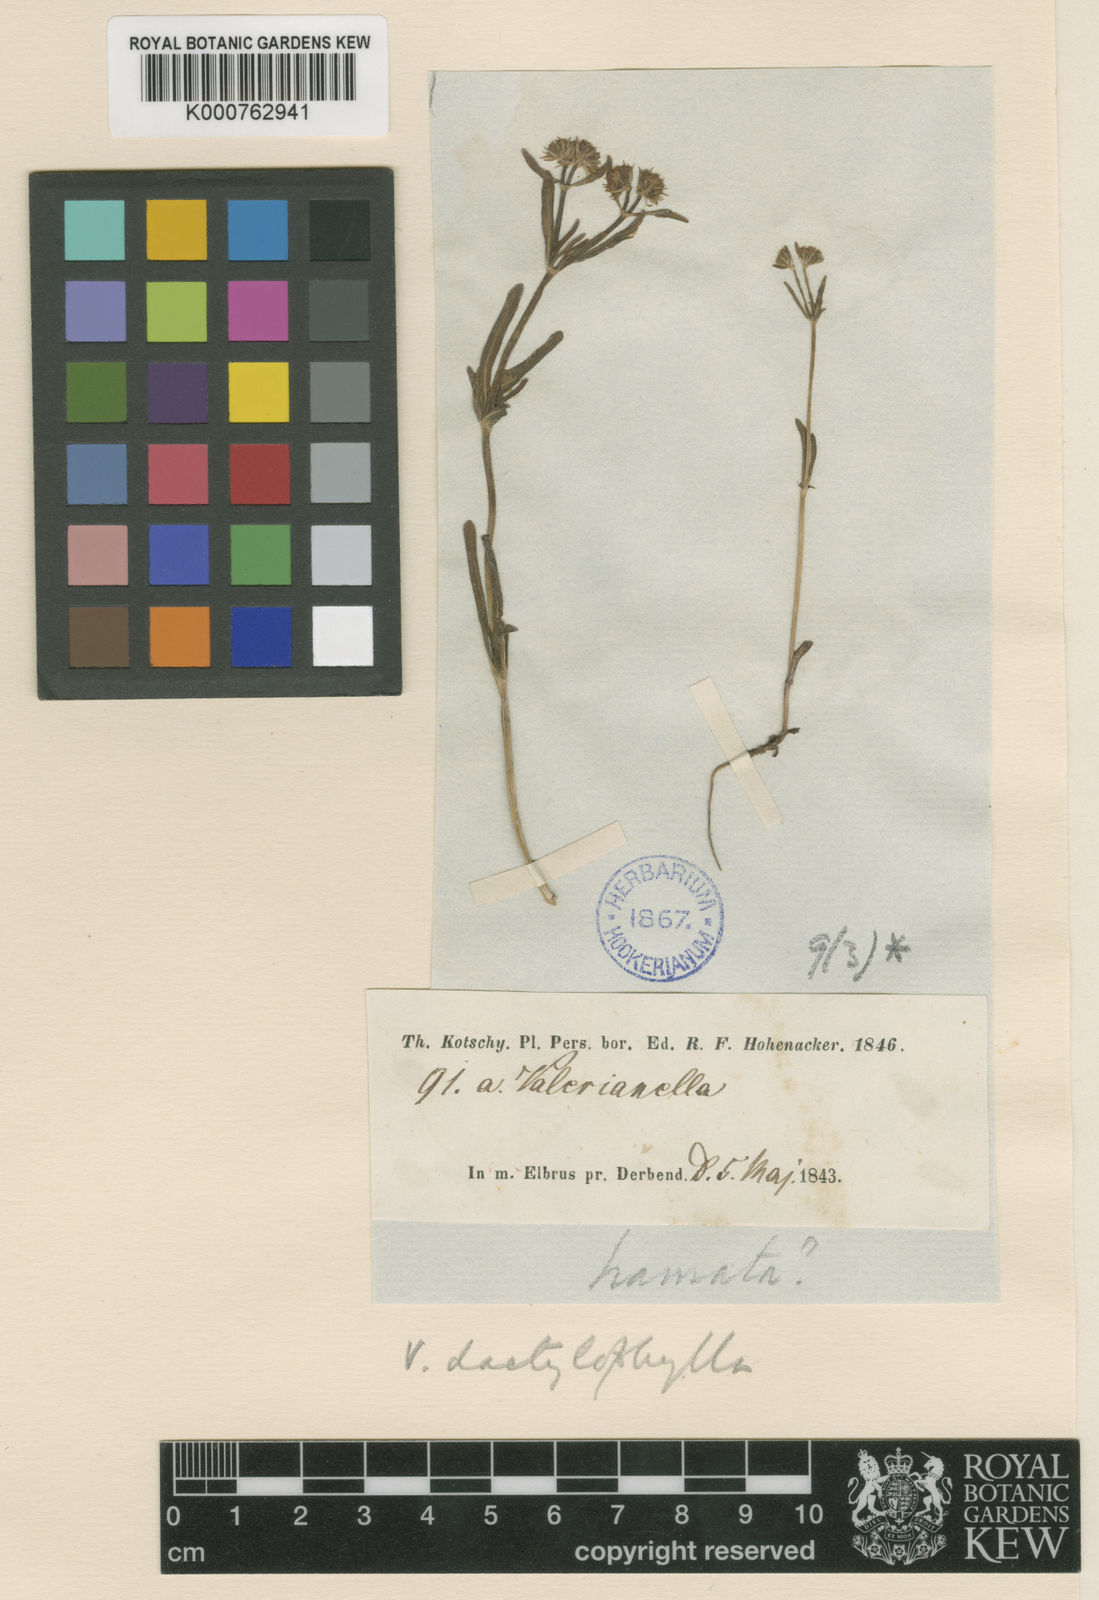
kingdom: Plantae
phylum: Tracheophyta
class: Magnoliopsida
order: Dipsacales
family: Caprifoliaceae
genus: Valerianella
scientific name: Valerianella dactylophylla
